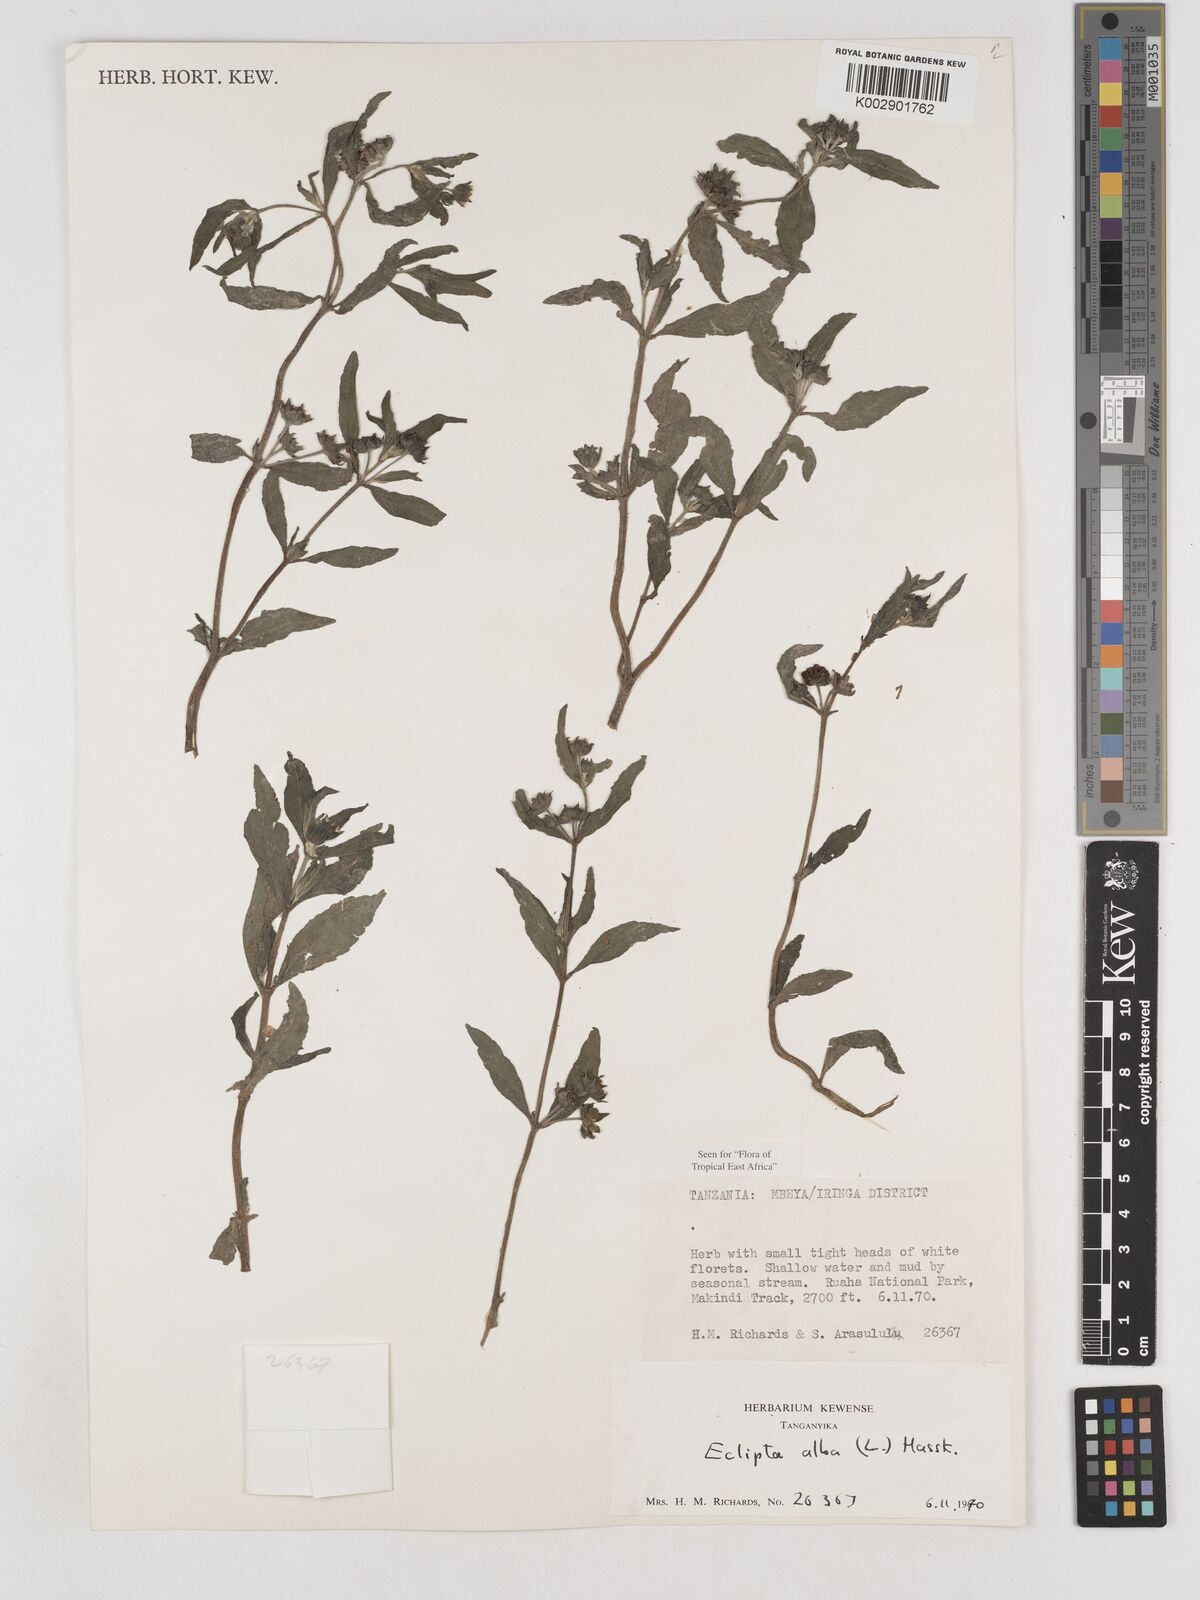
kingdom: Plantae
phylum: Tracheophyta
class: Magnoliopsida
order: Asterales
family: Asteraceae
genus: Eclipta
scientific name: Eclipta alba
